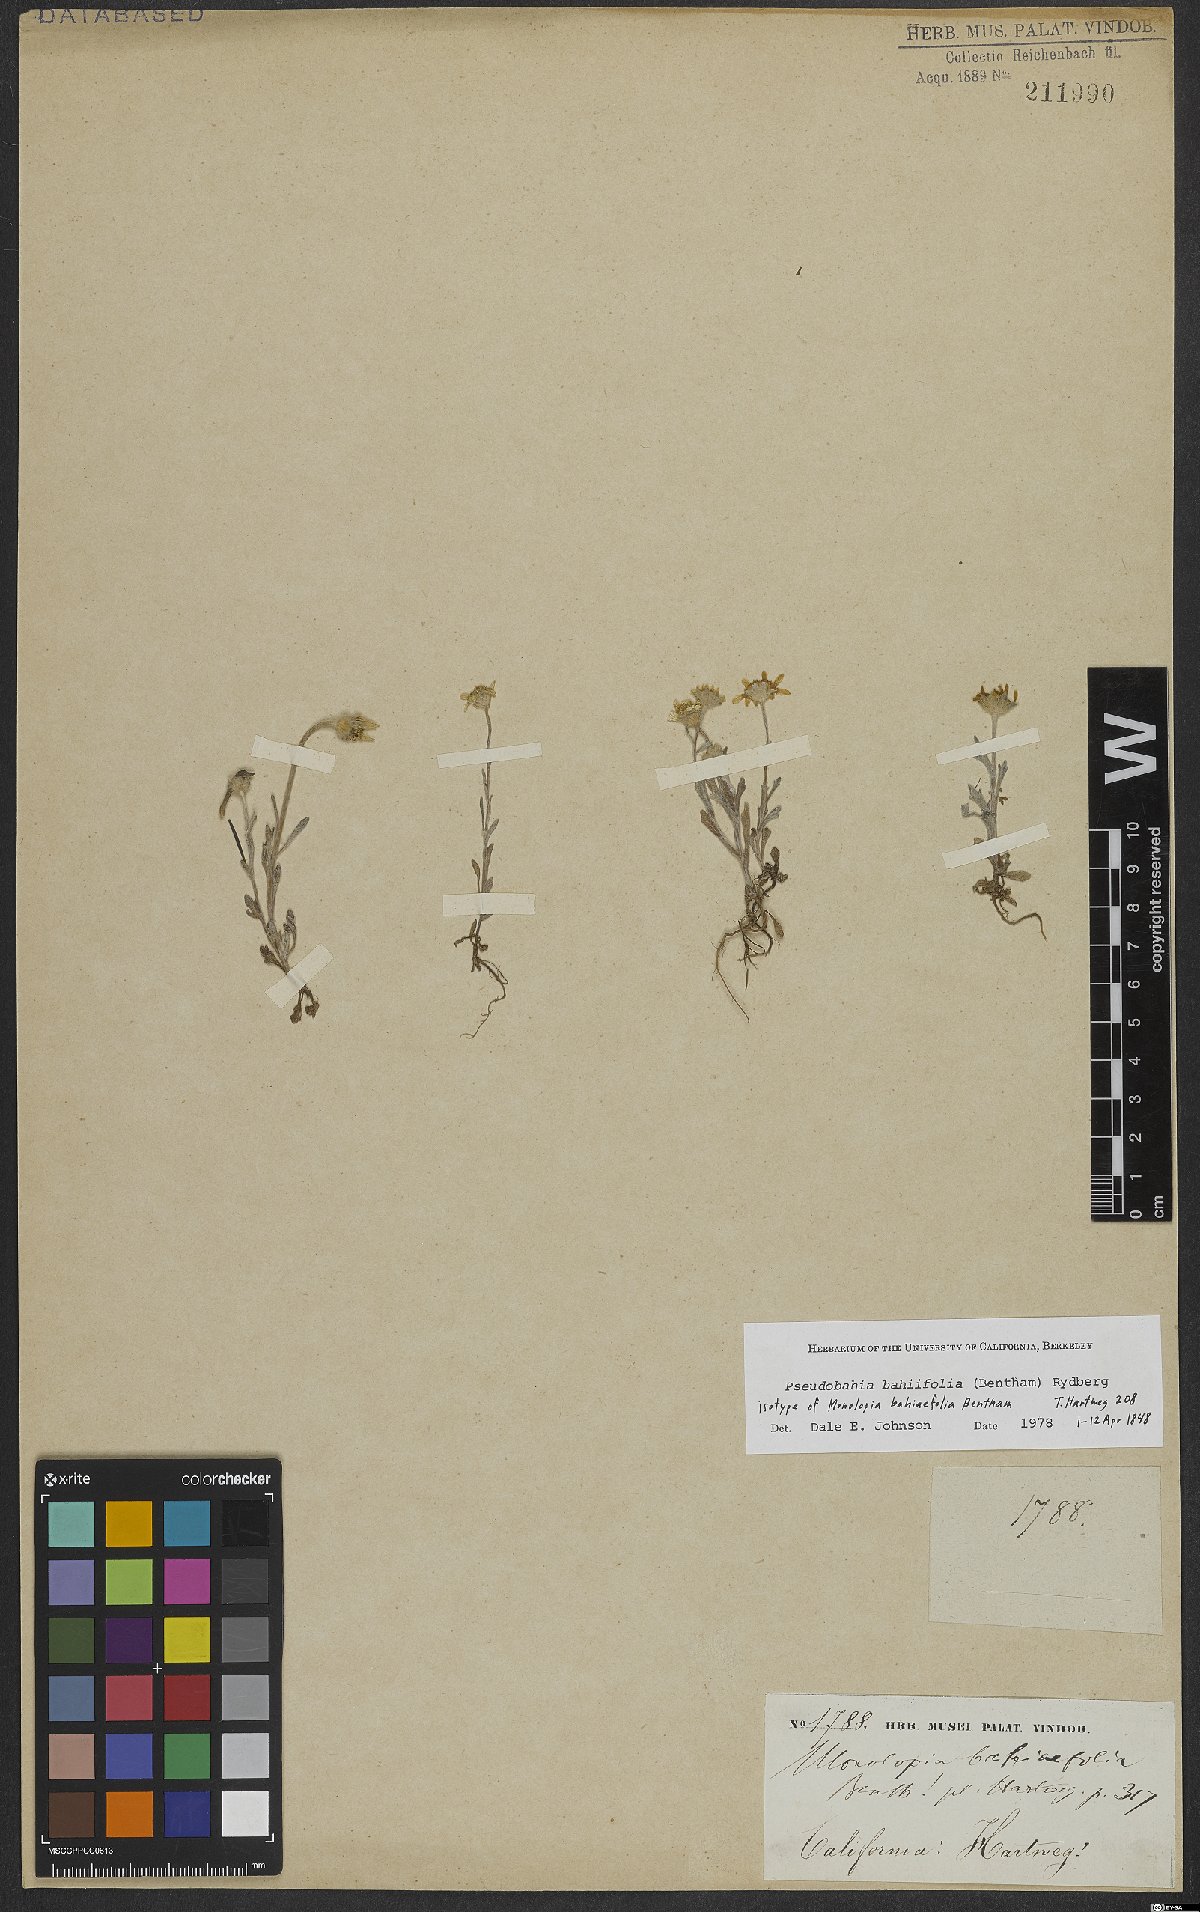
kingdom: Plantae
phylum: Tracheophyta
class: Magnoliopsida
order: Asterales
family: Asteraceae
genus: Pseudobahia
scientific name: Pseudobahia bahiifolia
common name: Hartweg's golden sunburst
